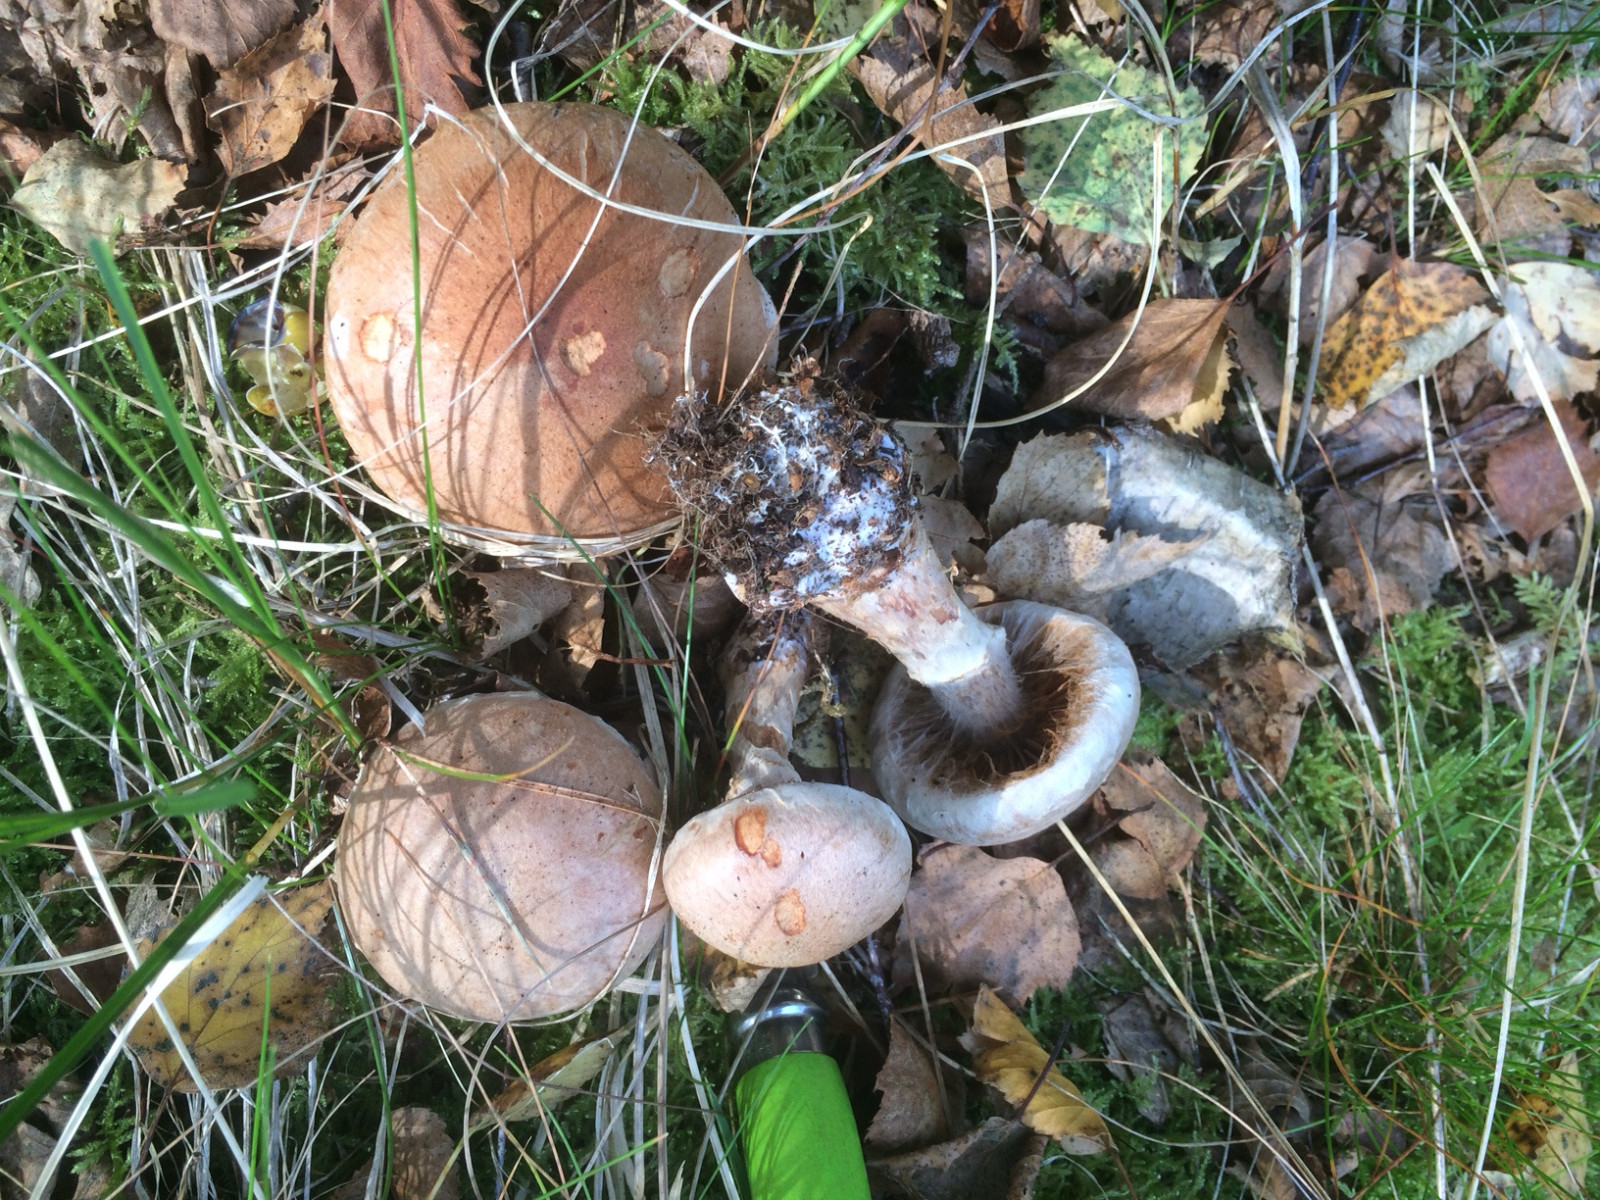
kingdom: Fungi
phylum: Basidiomycota
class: Agaricomycetes
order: Agaricales
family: Cortinariaceae
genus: Cortinarius
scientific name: Cortinarius alborufescens
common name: flosset slørhat
